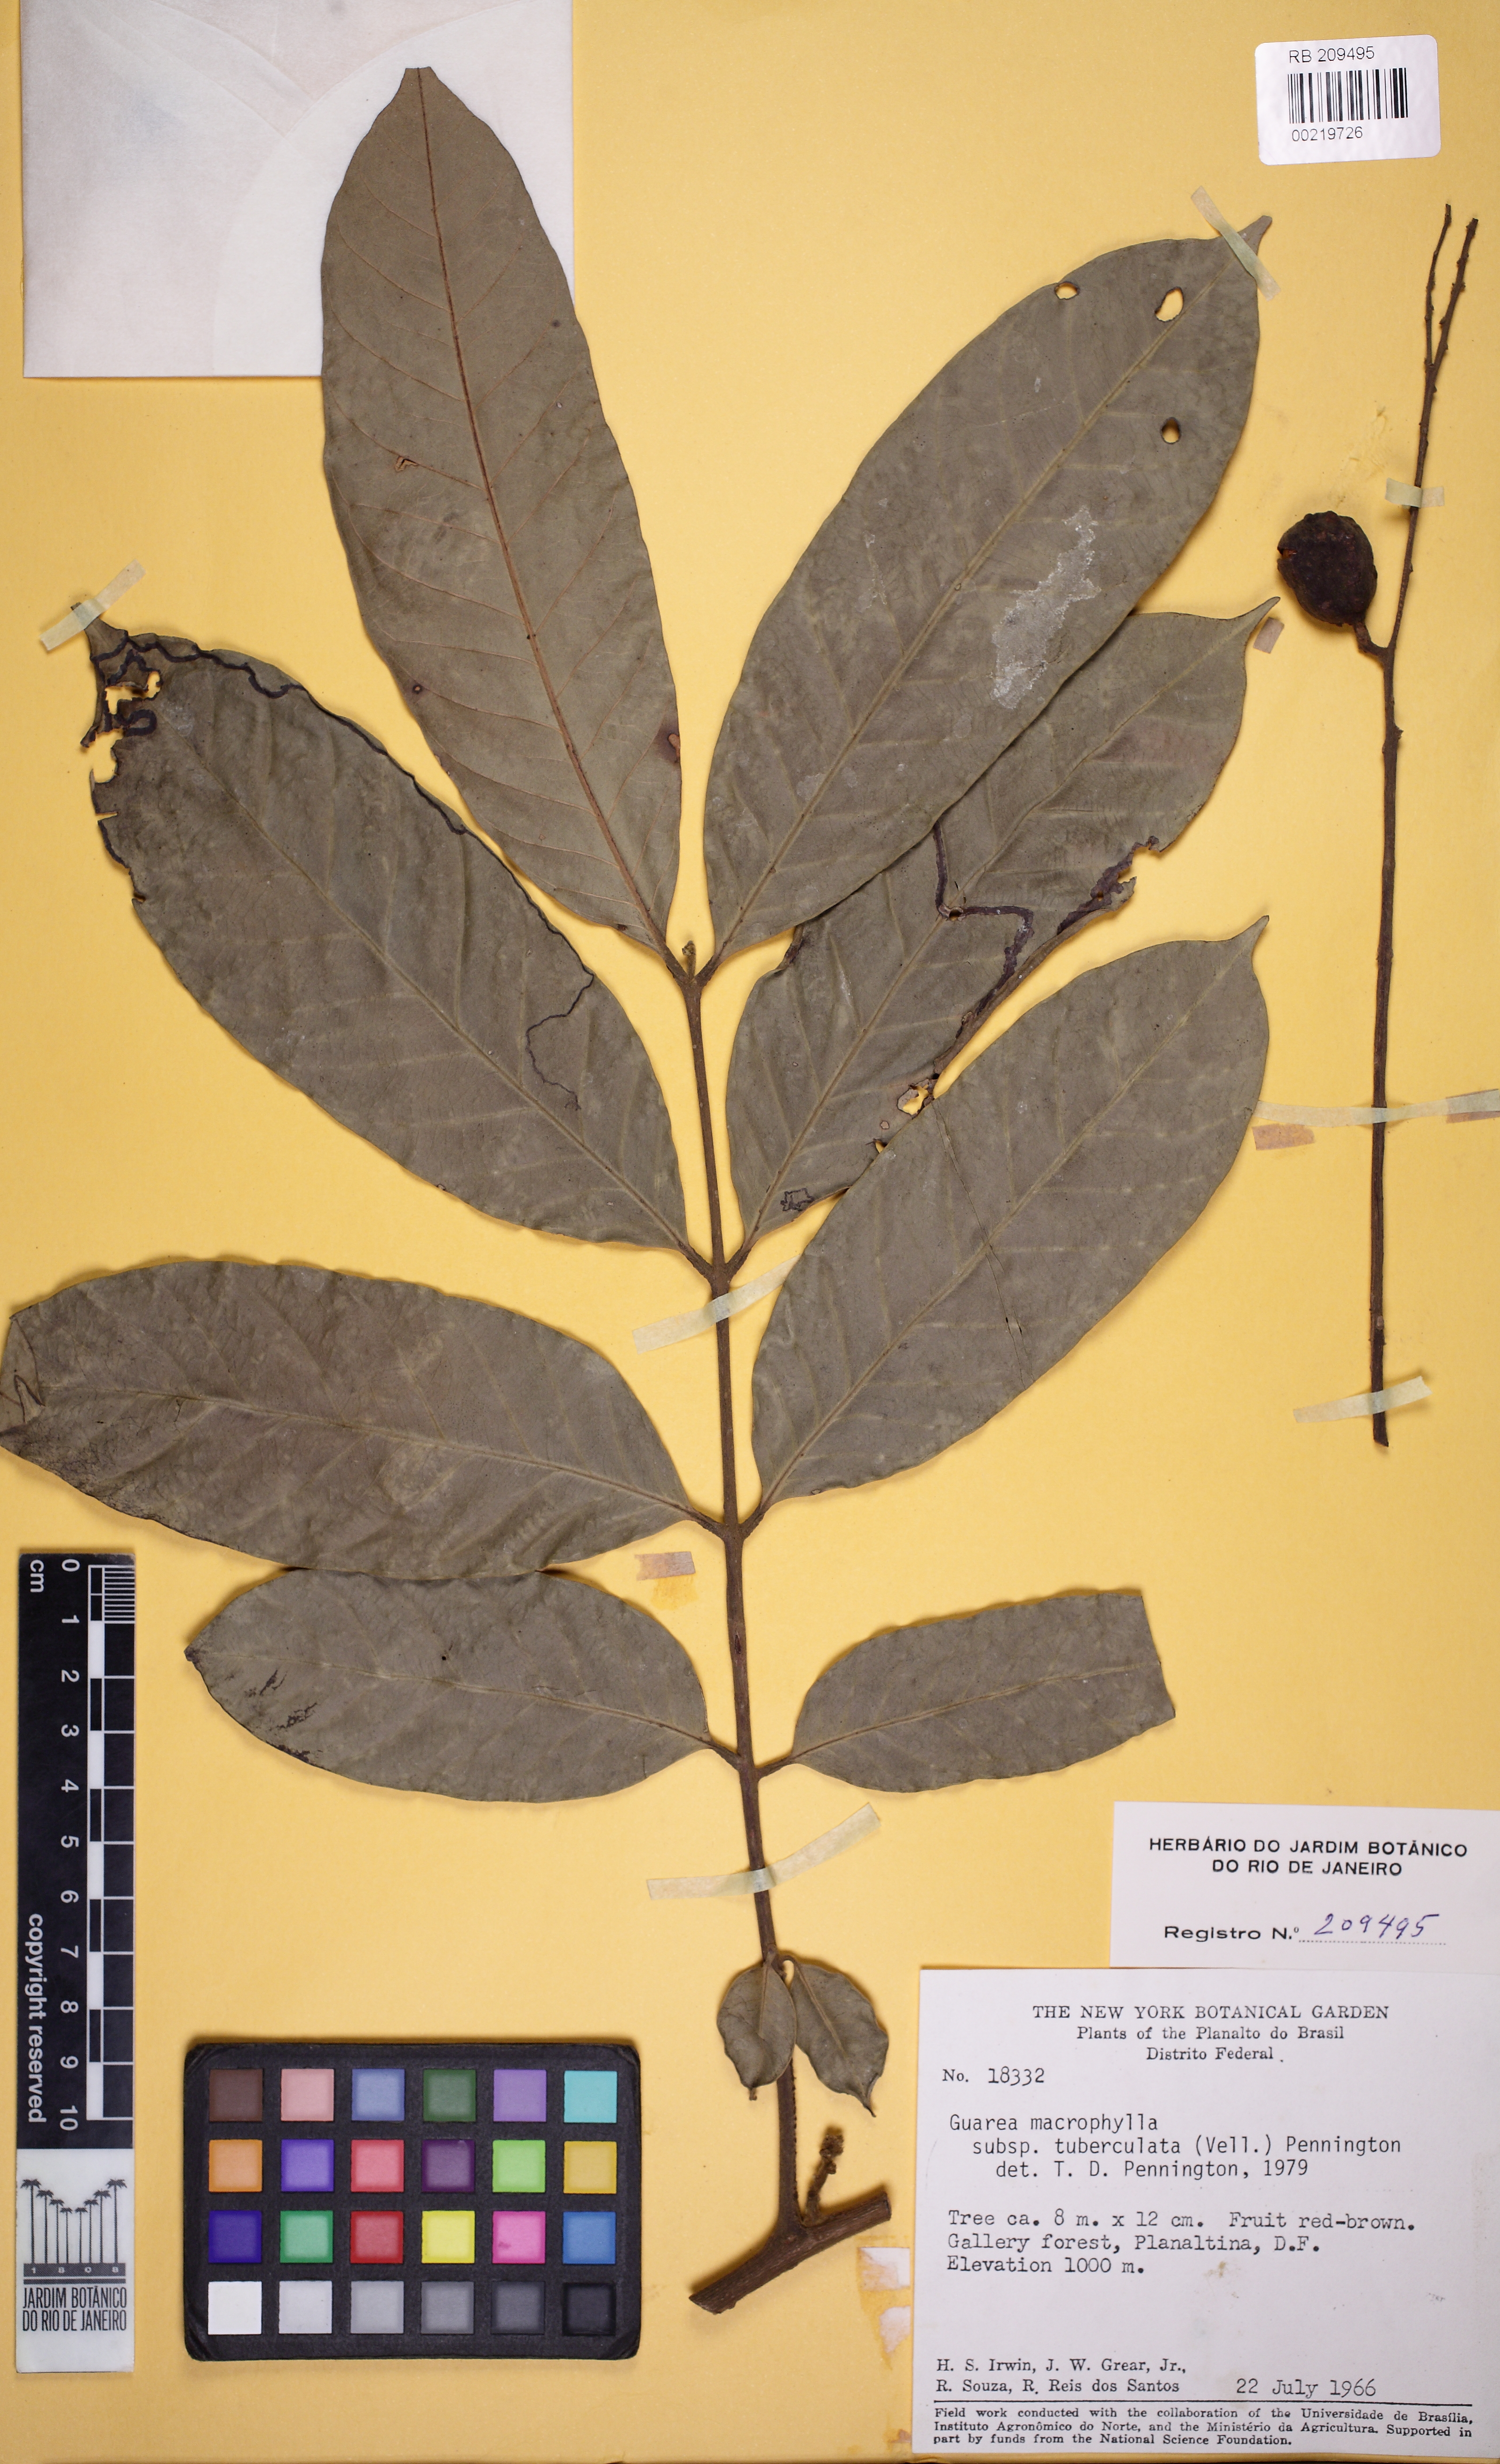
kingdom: Plantae
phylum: Tracheophyta
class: Magnoliopsida
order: Sapindales
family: Meliaceae
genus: Guarea
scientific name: Guarea macrophylla
